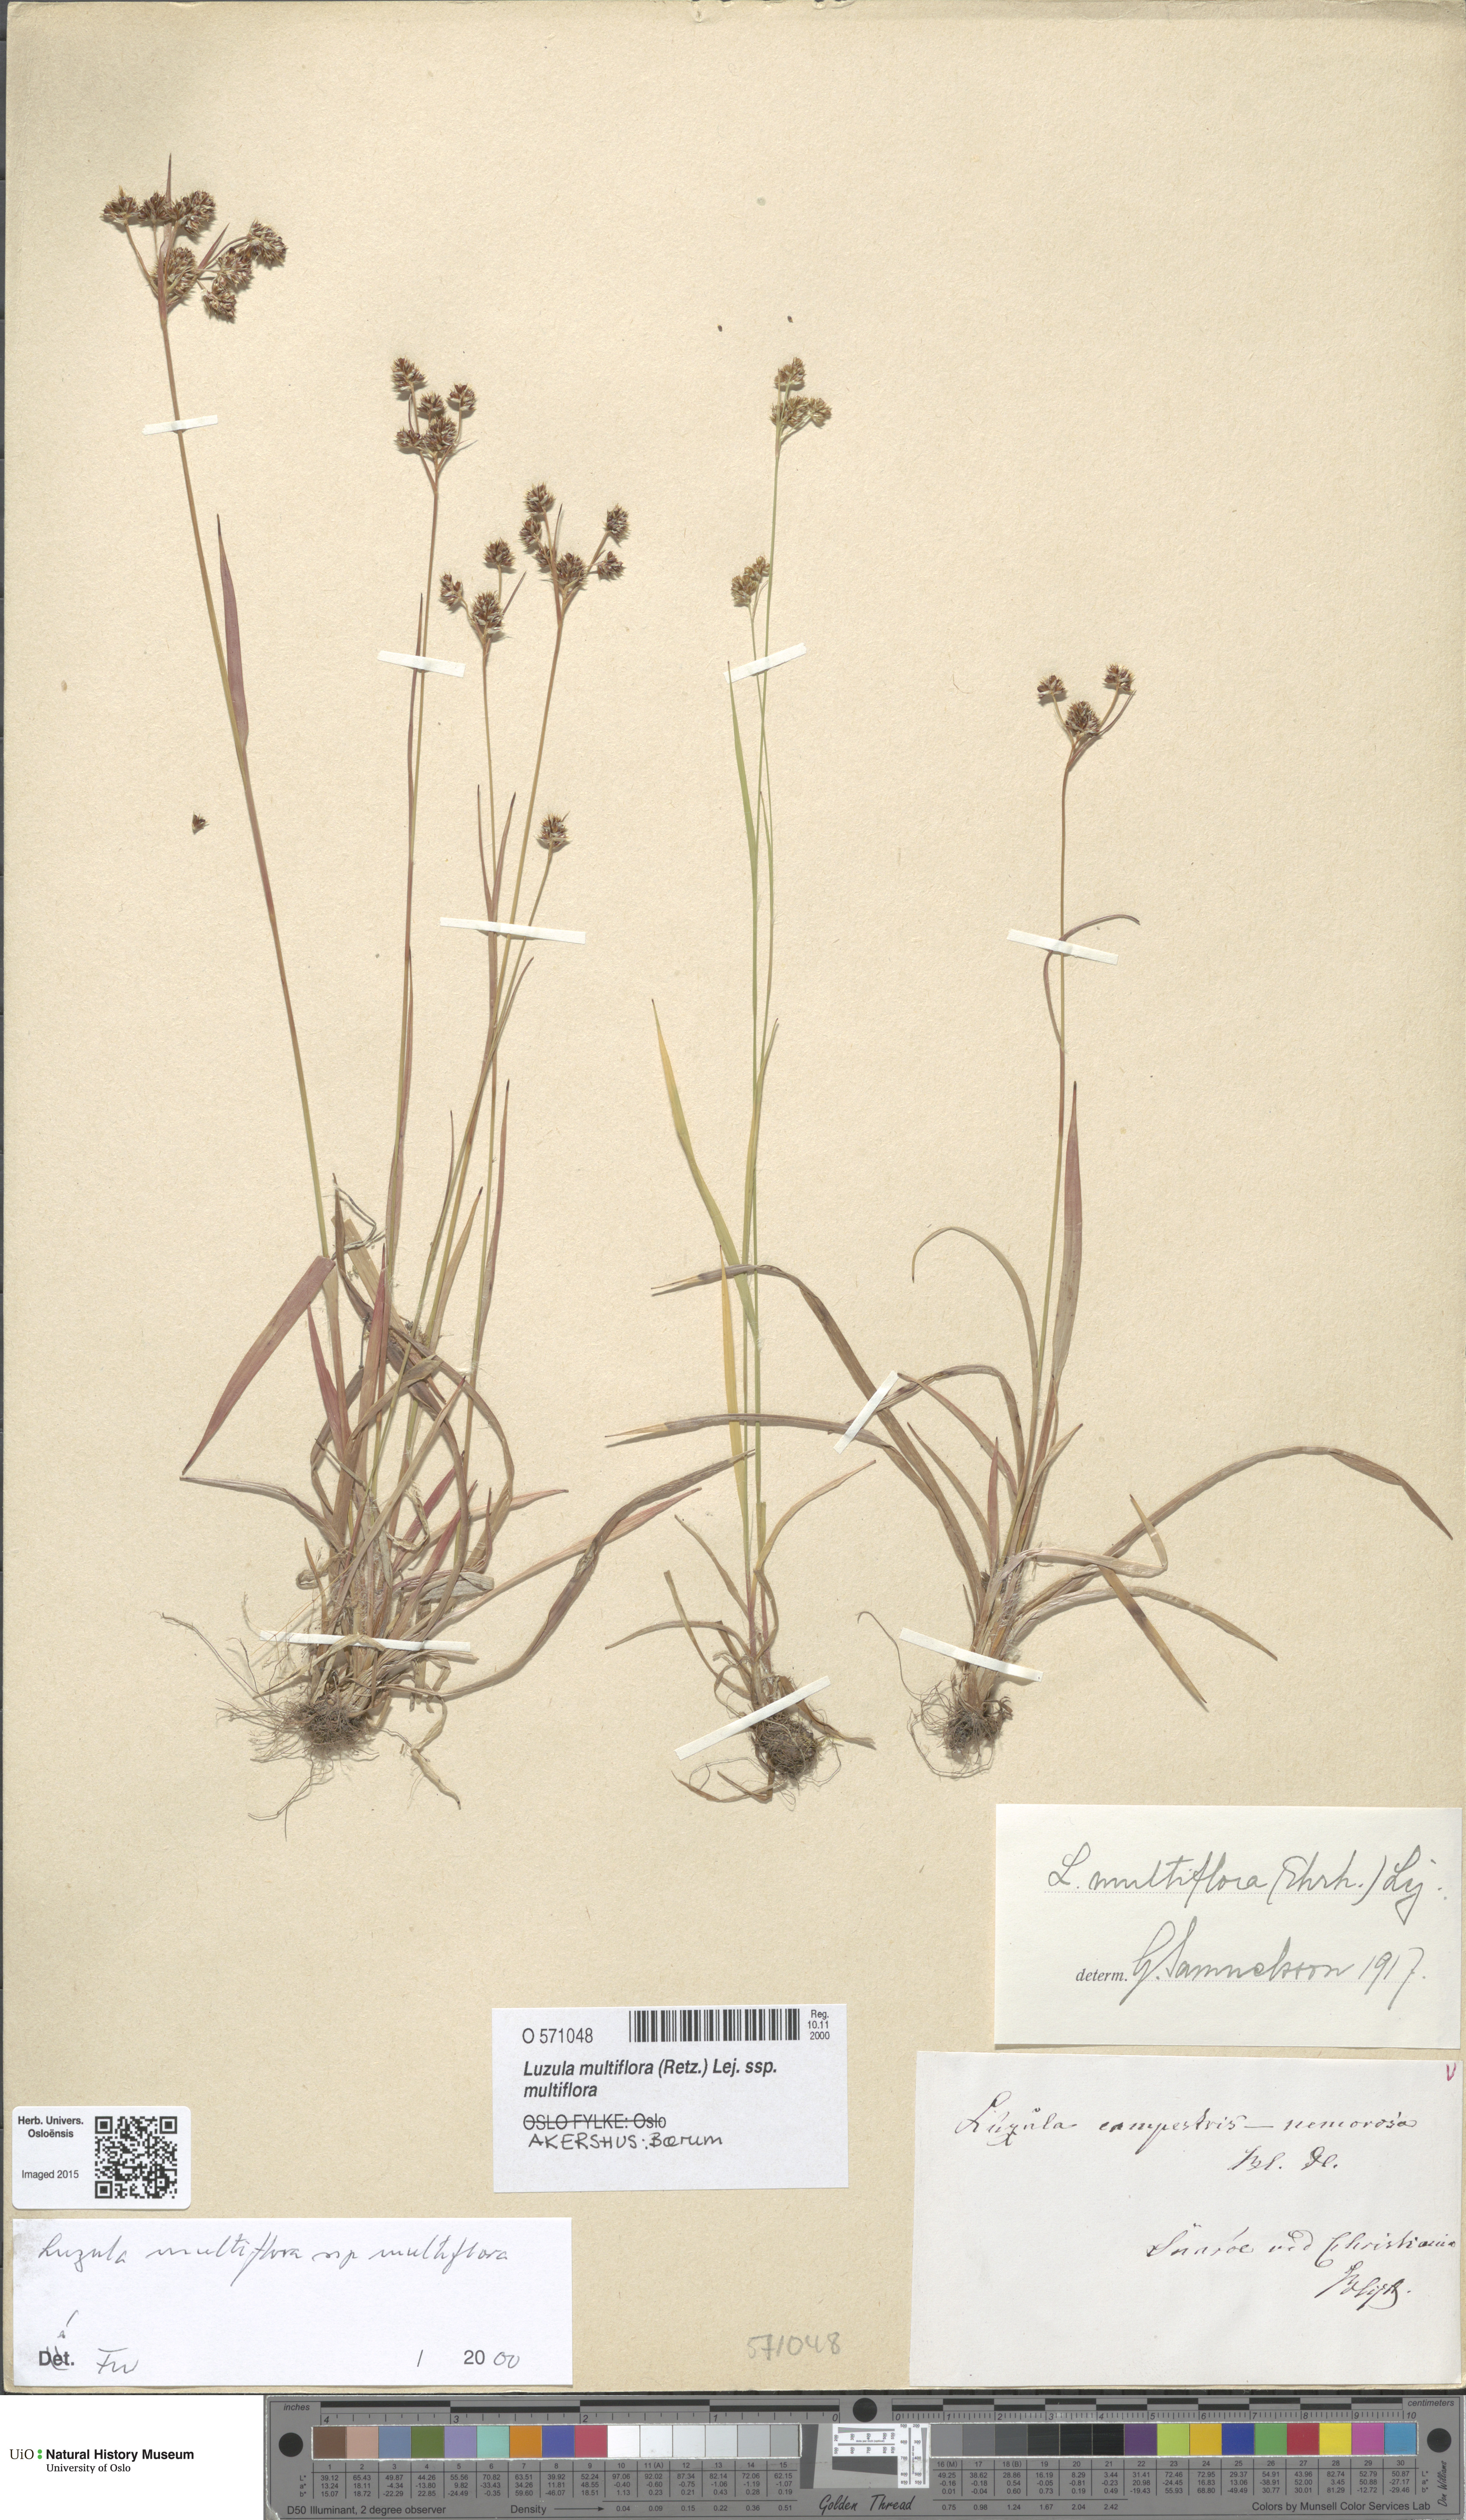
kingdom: Plantae
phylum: Tracheophyta
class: Liliopsida
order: Poales
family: Juncaceae
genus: Luzula
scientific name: Luzula multiflora
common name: Heath wood-rush
